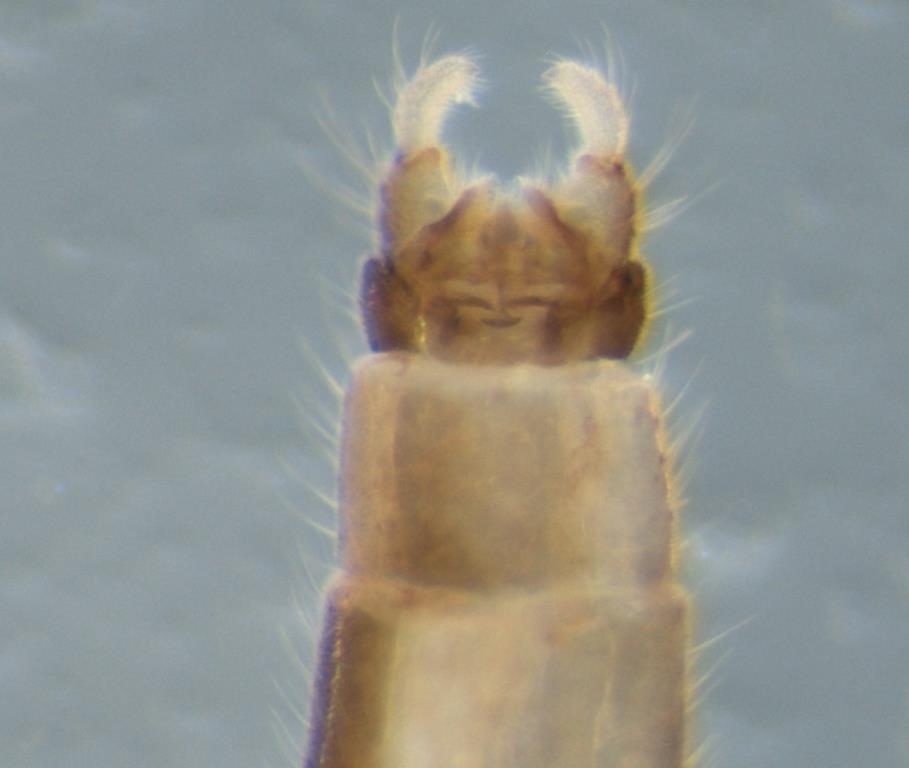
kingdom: Animalia
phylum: Arthropoda
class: Insecta
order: Diptera
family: Dixidae
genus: Peytonulus
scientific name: Peytonulus Dixa nebulosa
